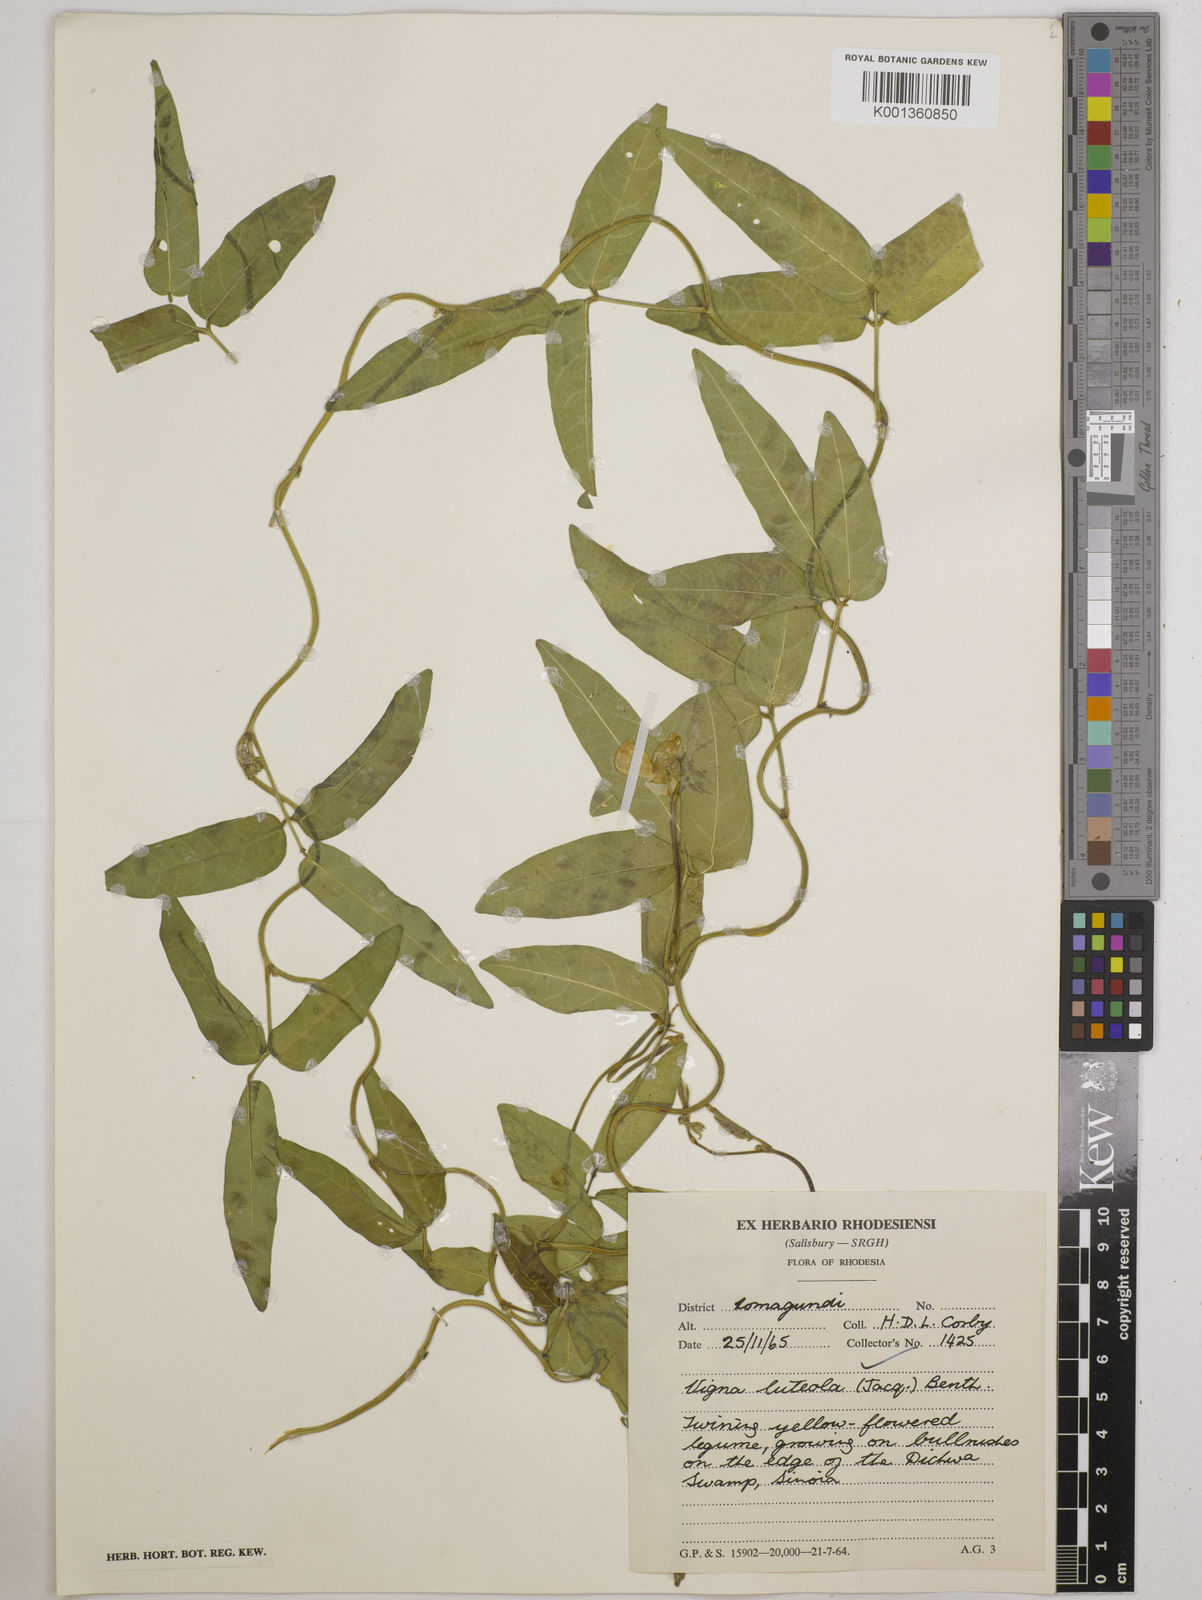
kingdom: Plantae
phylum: Tracheophyta
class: Magnoliopsida
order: Fabales
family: Fabaceae
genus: Vigna
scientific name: Vigna luteola
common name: Hairypod cowpea
